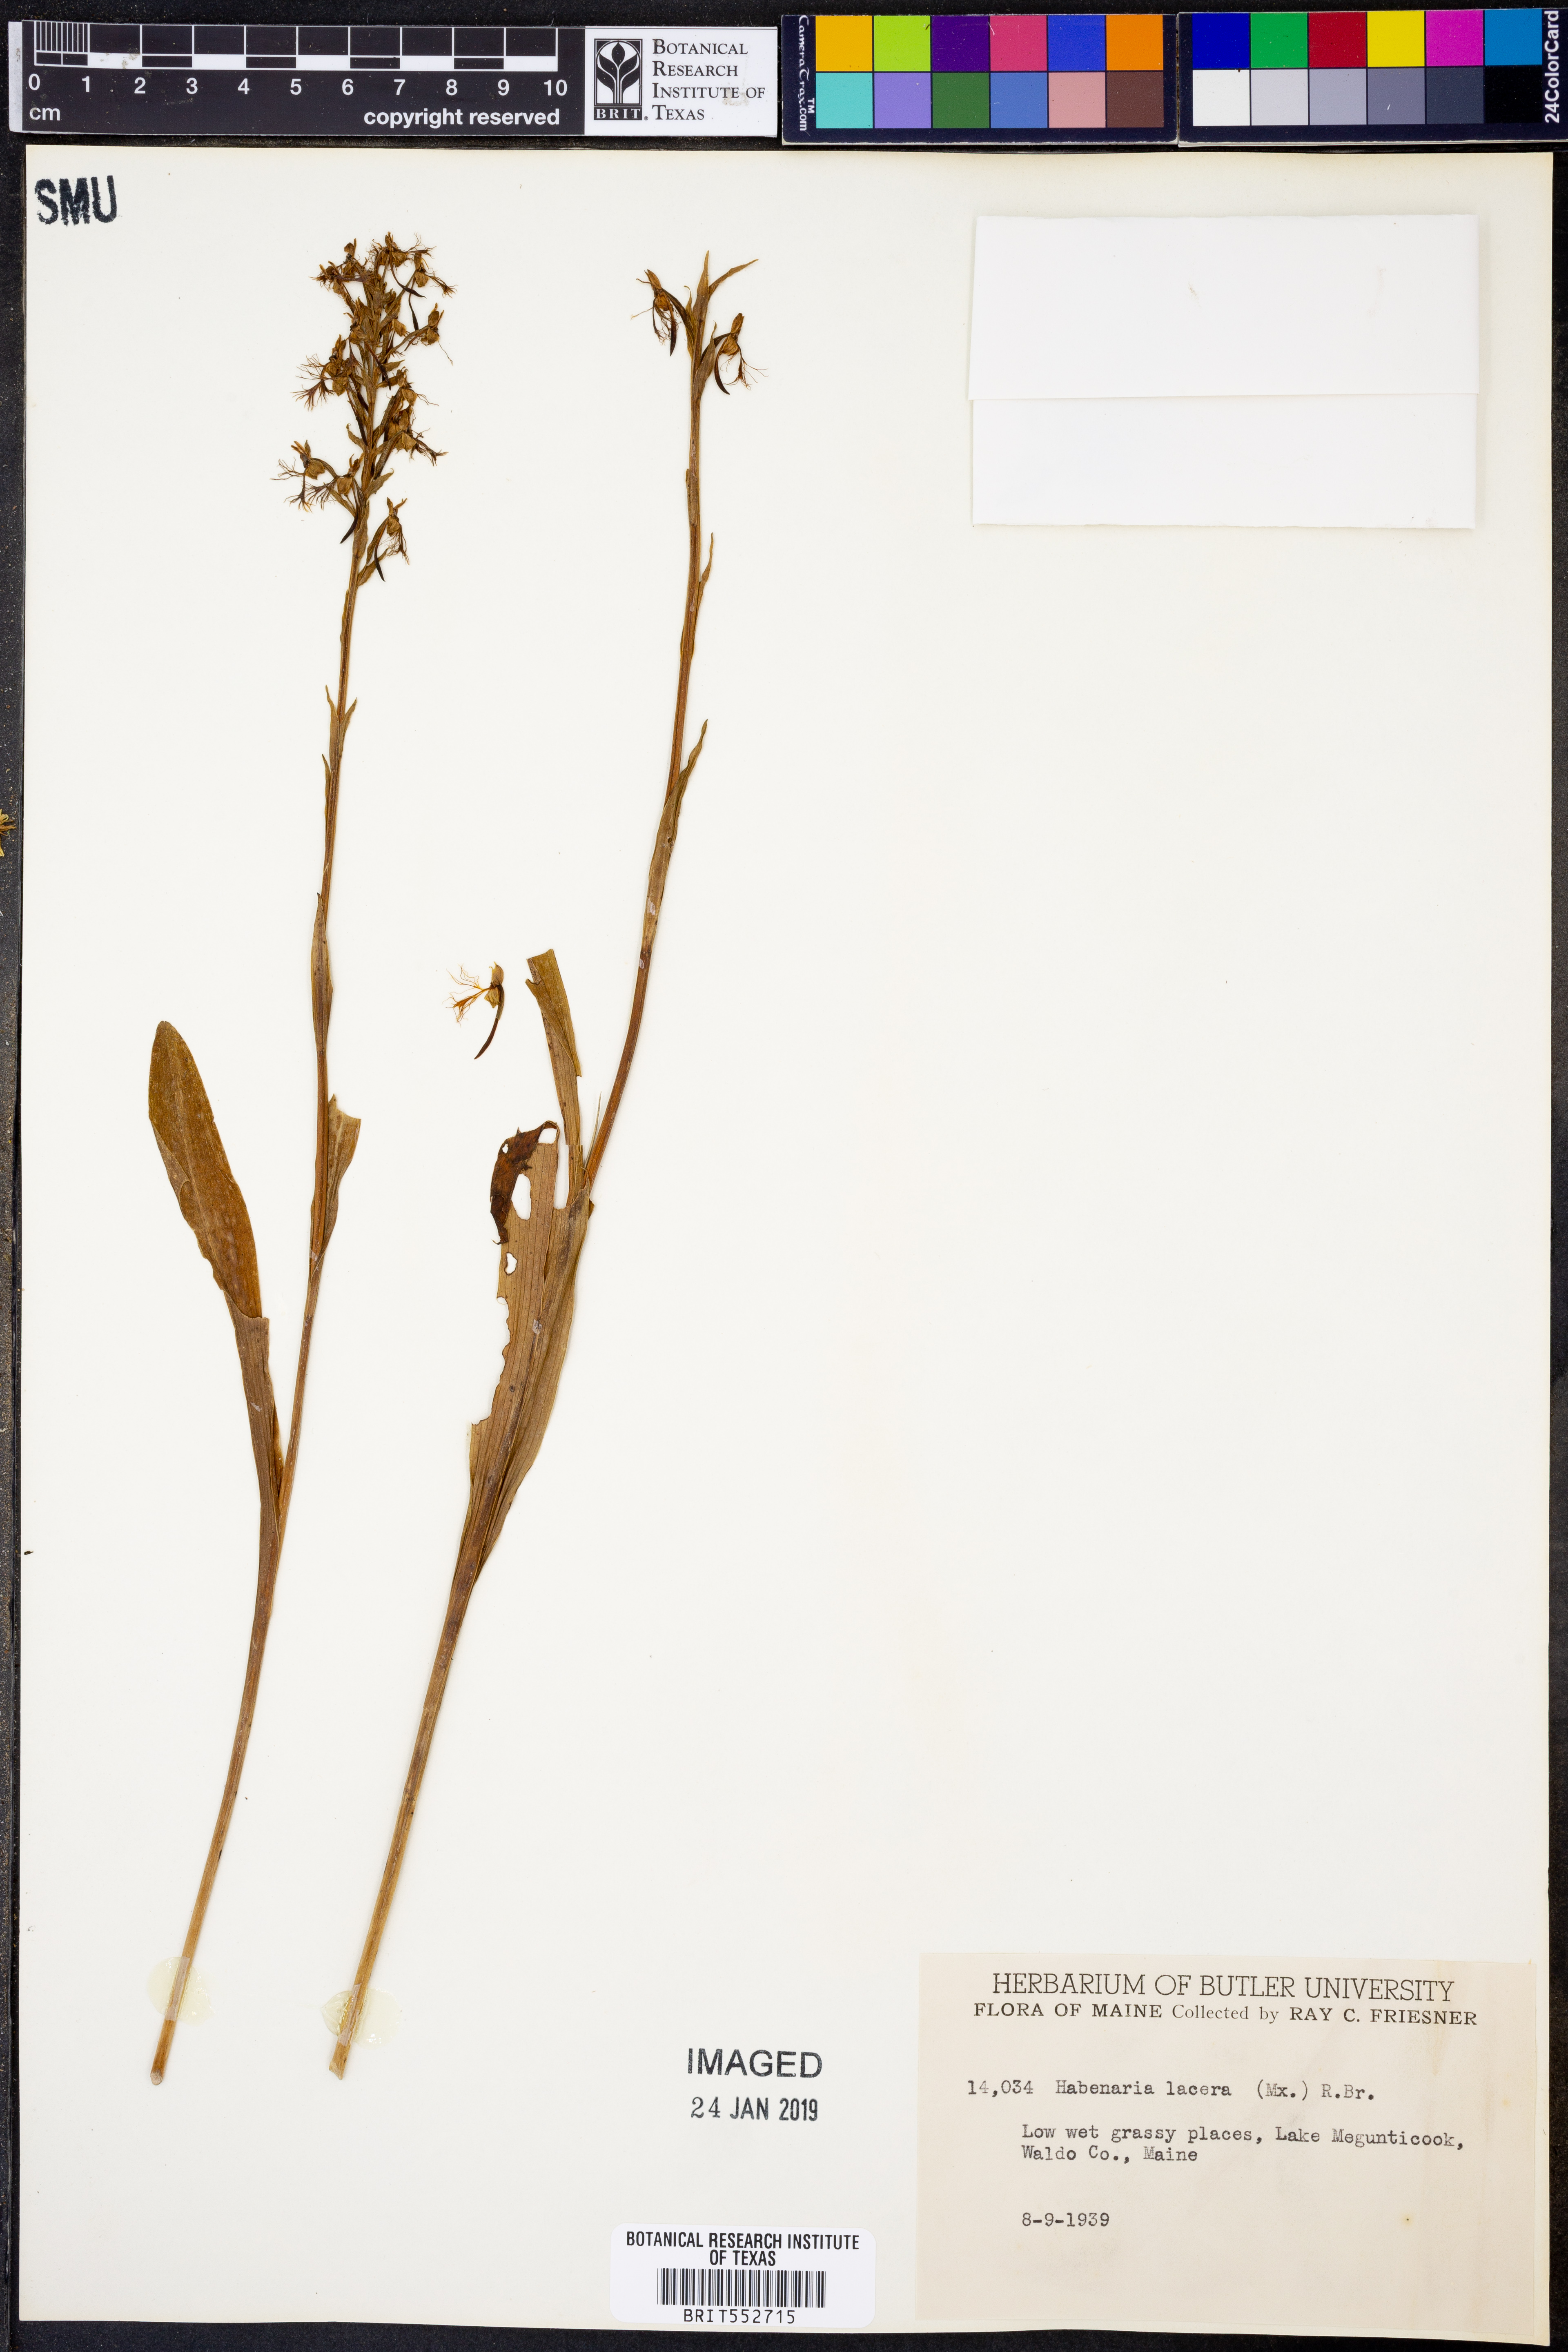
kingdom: Plantae
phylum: Tracheophyta
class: Liliopsida
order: Asparagales
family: Orchidaceae
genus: Platanthera
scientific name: Platanthera lacera
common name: Green fringed orchid
